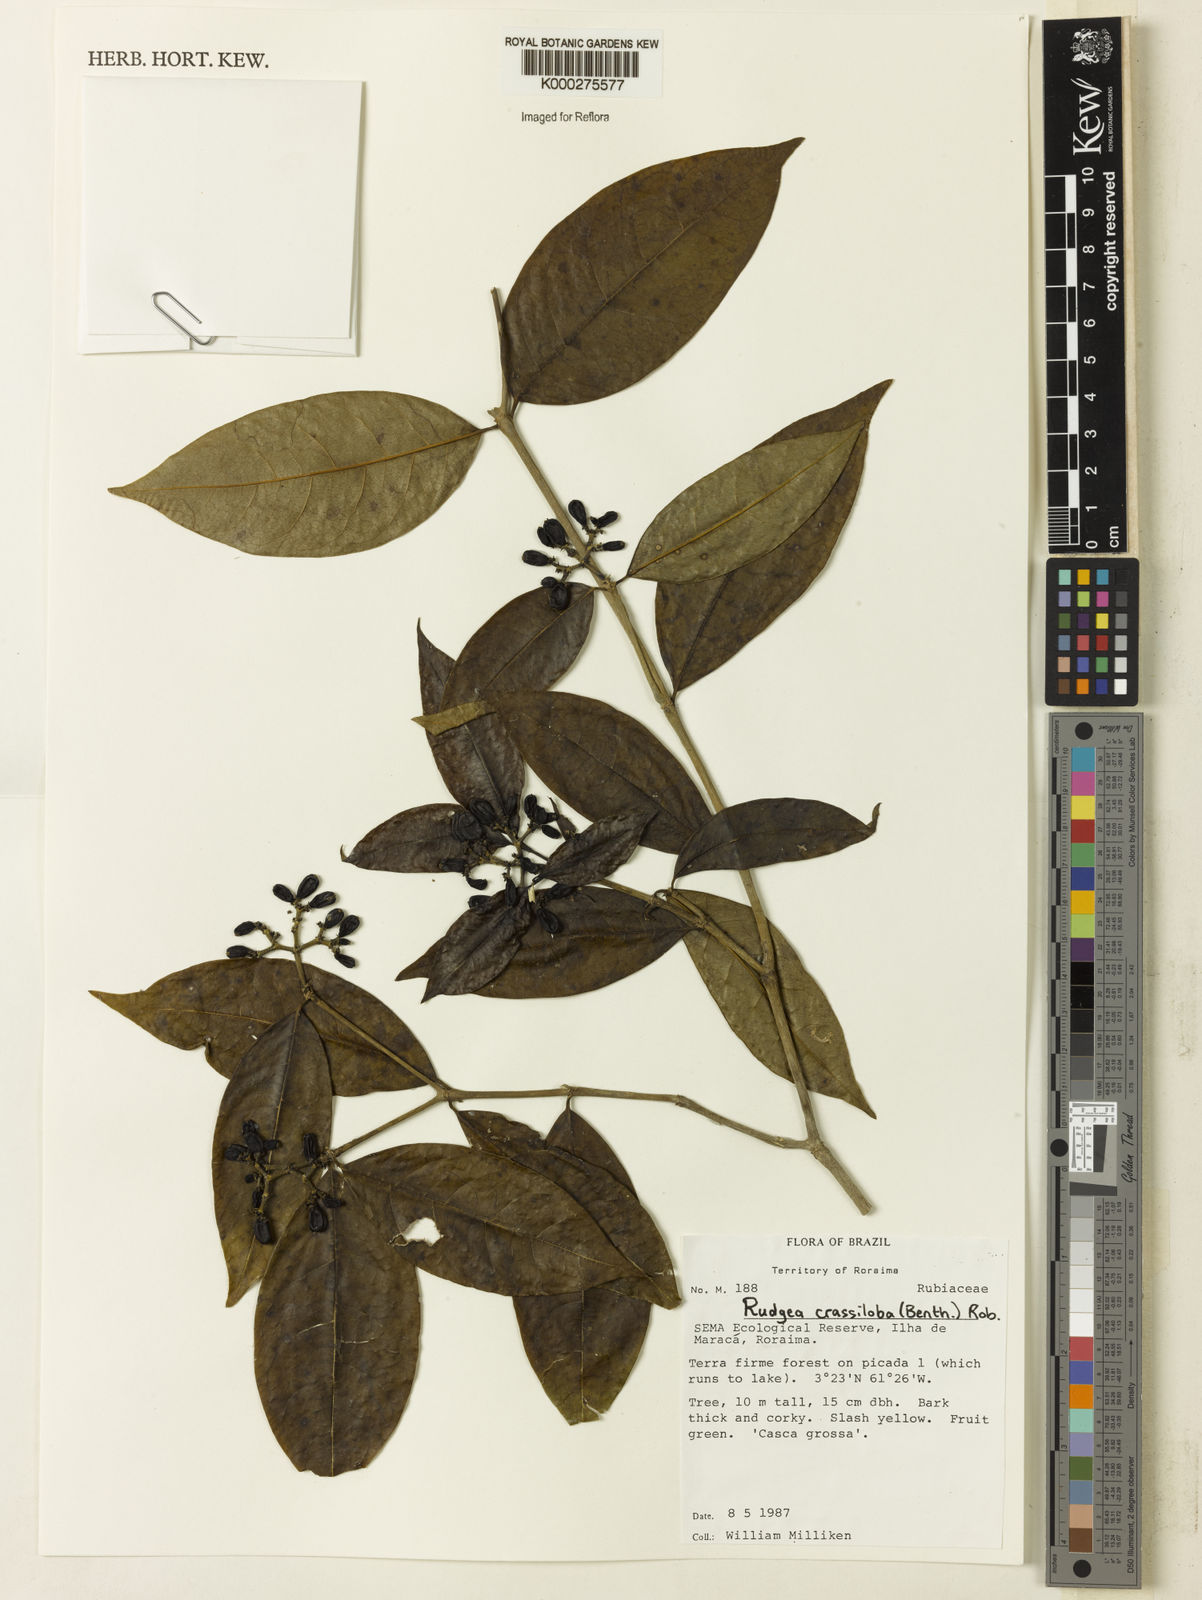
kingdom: Plantae
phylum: Tracheophyta
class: Magnoliopsida
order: Gentianales
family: Rubiaceae
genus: Rudgea
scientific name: Rudgea crassiloba
